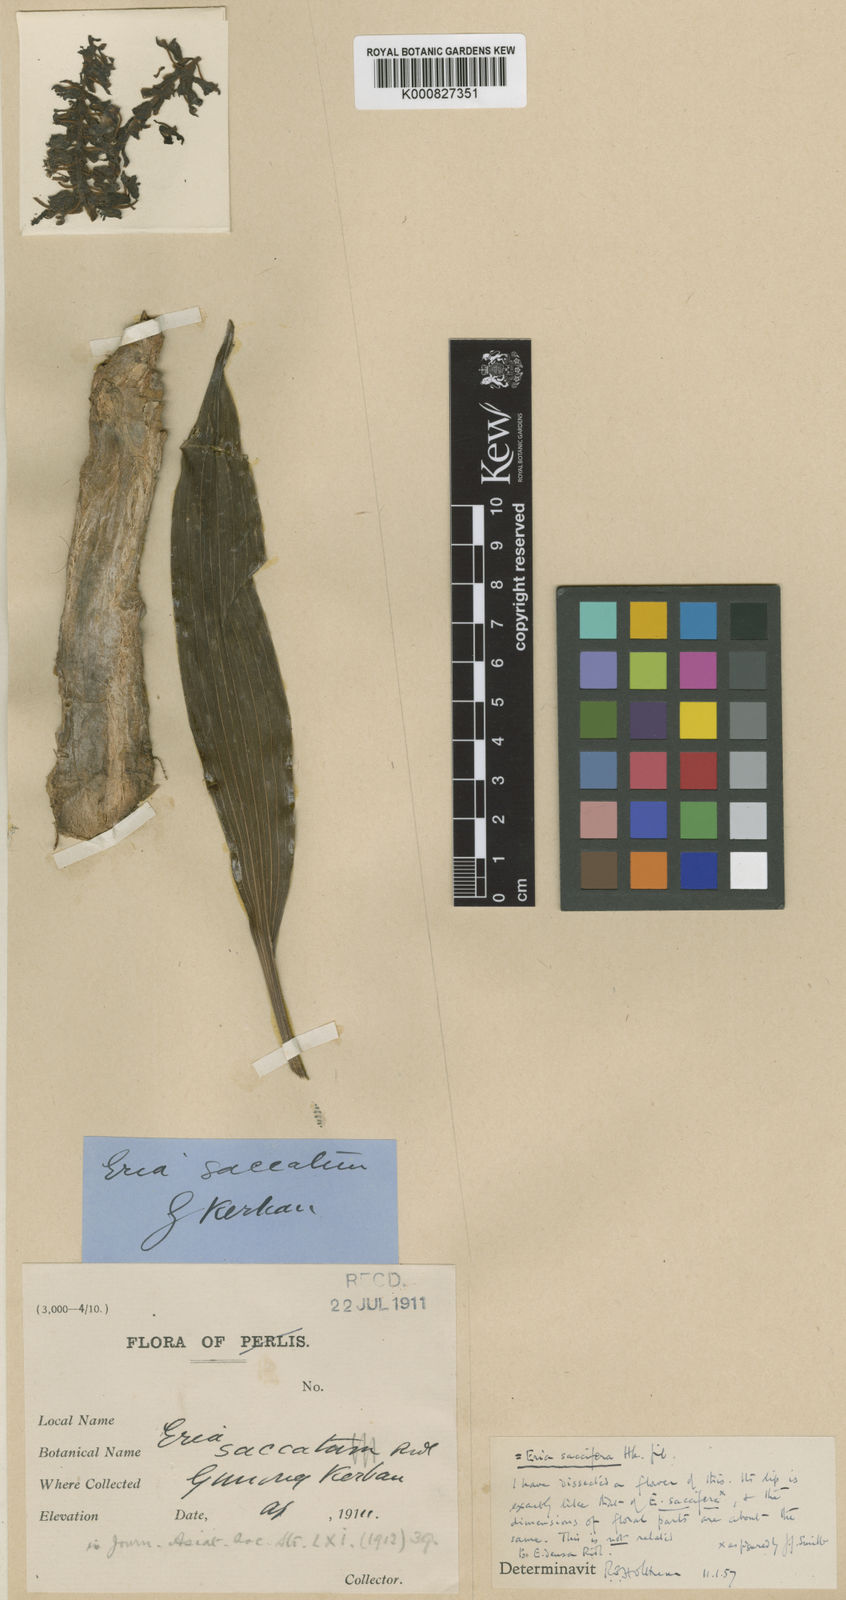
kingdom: Plantae
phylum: Tracheophyta
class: Liliopsida
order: Asparagales
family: Orchidaceae
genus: Pinalia
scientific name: Pinalia saccifera
